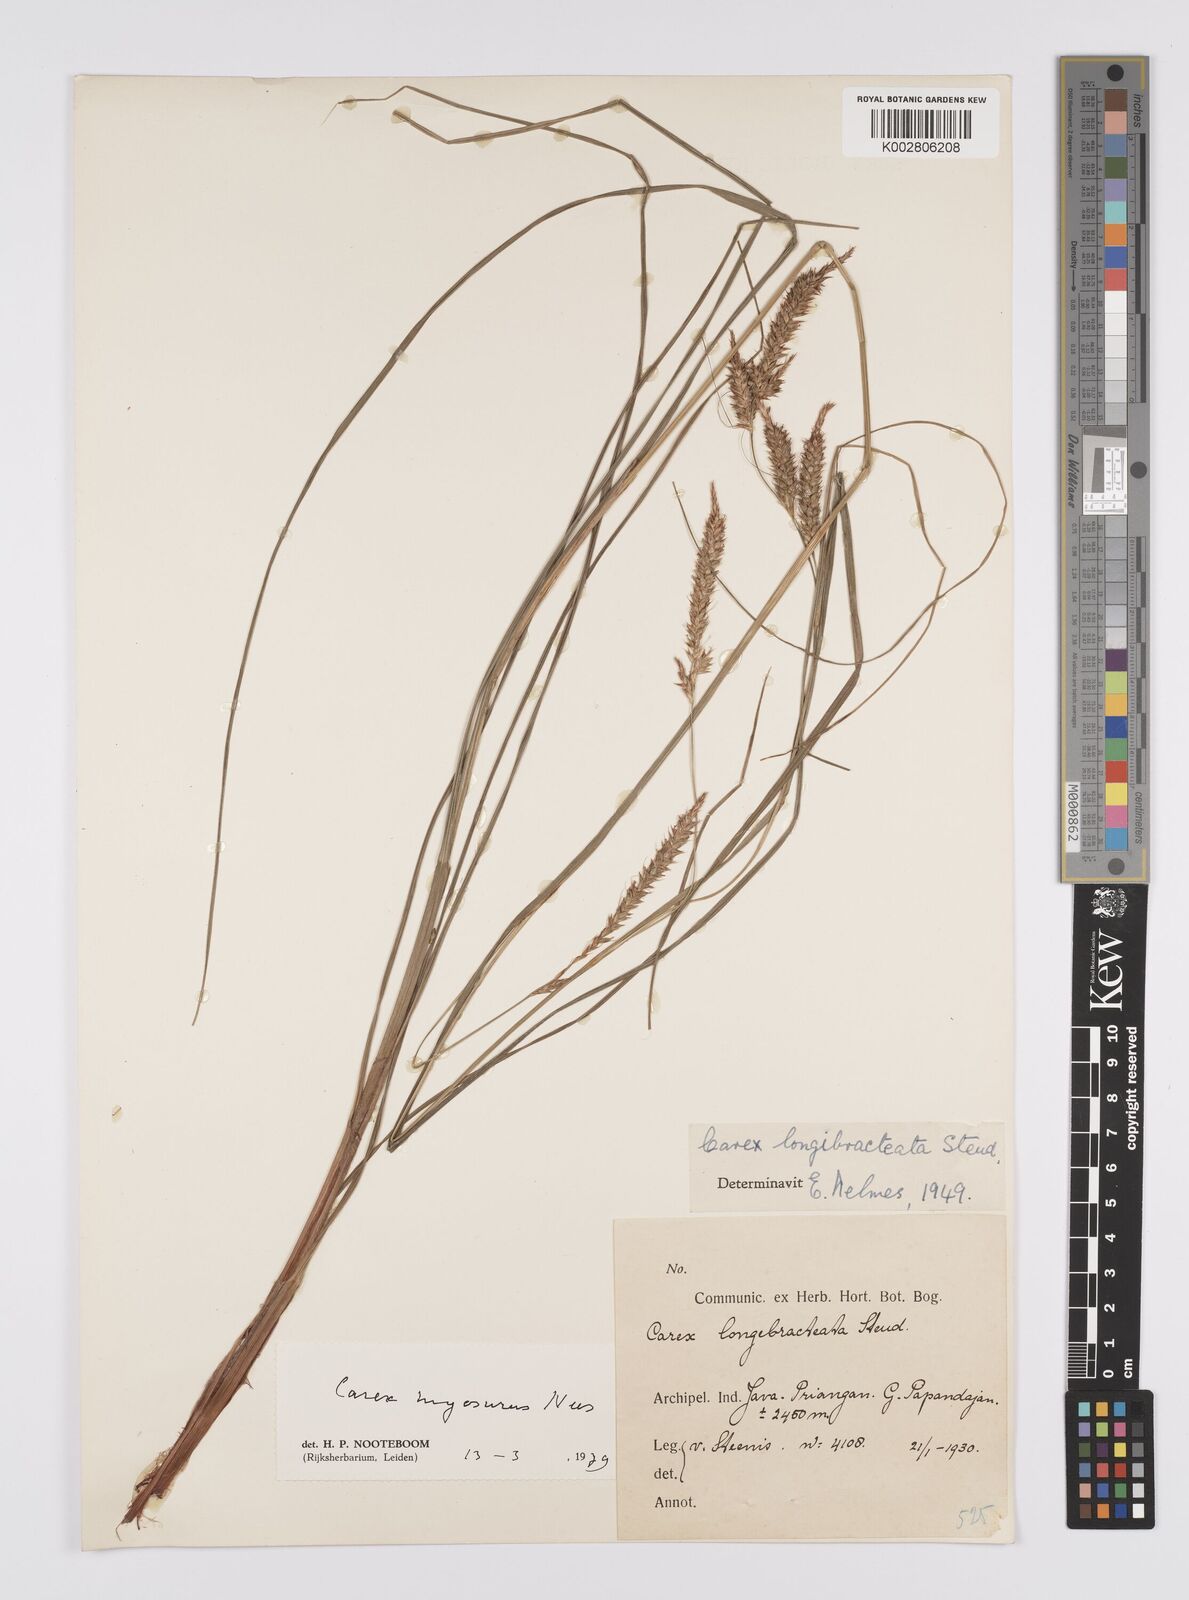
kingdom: Plantae
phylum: Tracheophyta
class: Liliopsida
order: Poales
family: Cyperaceae
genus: Carex
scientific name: Carex myosurus
